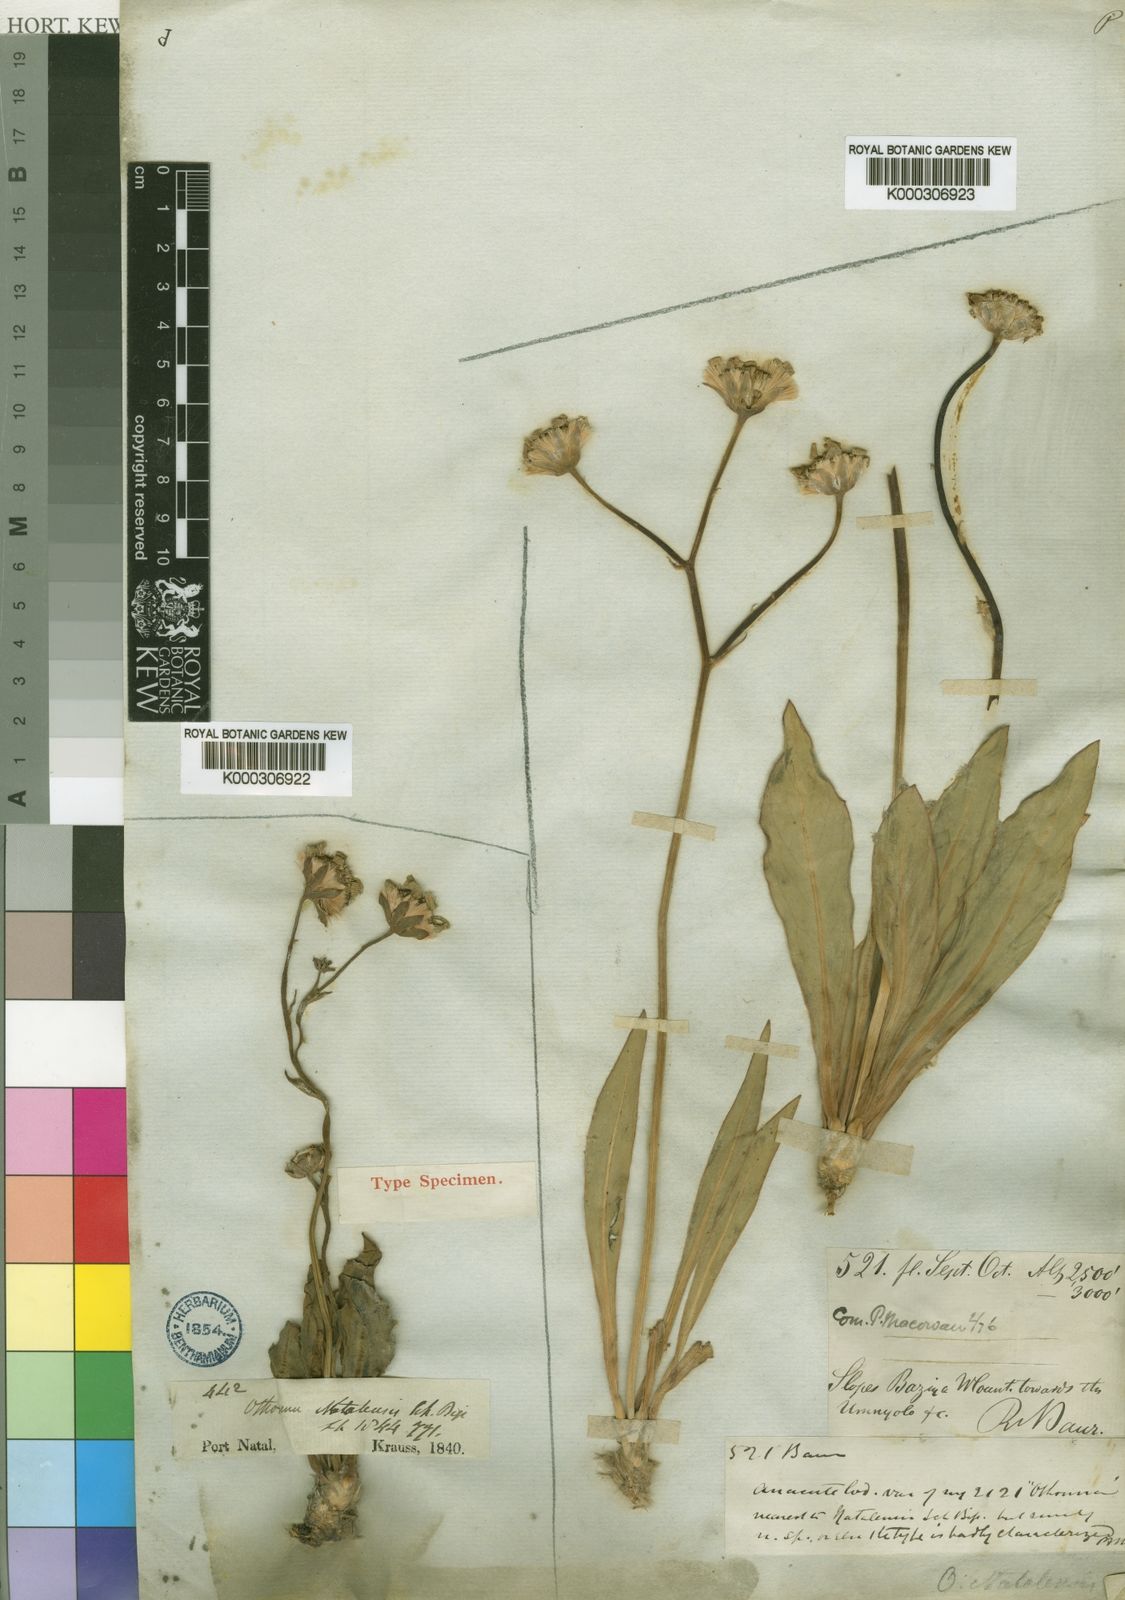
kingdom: Plantae
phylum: Tracheophyta
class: Magnoliopsida
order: Asterales
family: Asteraceae
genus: Othonna
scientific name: Othonna natalensis
